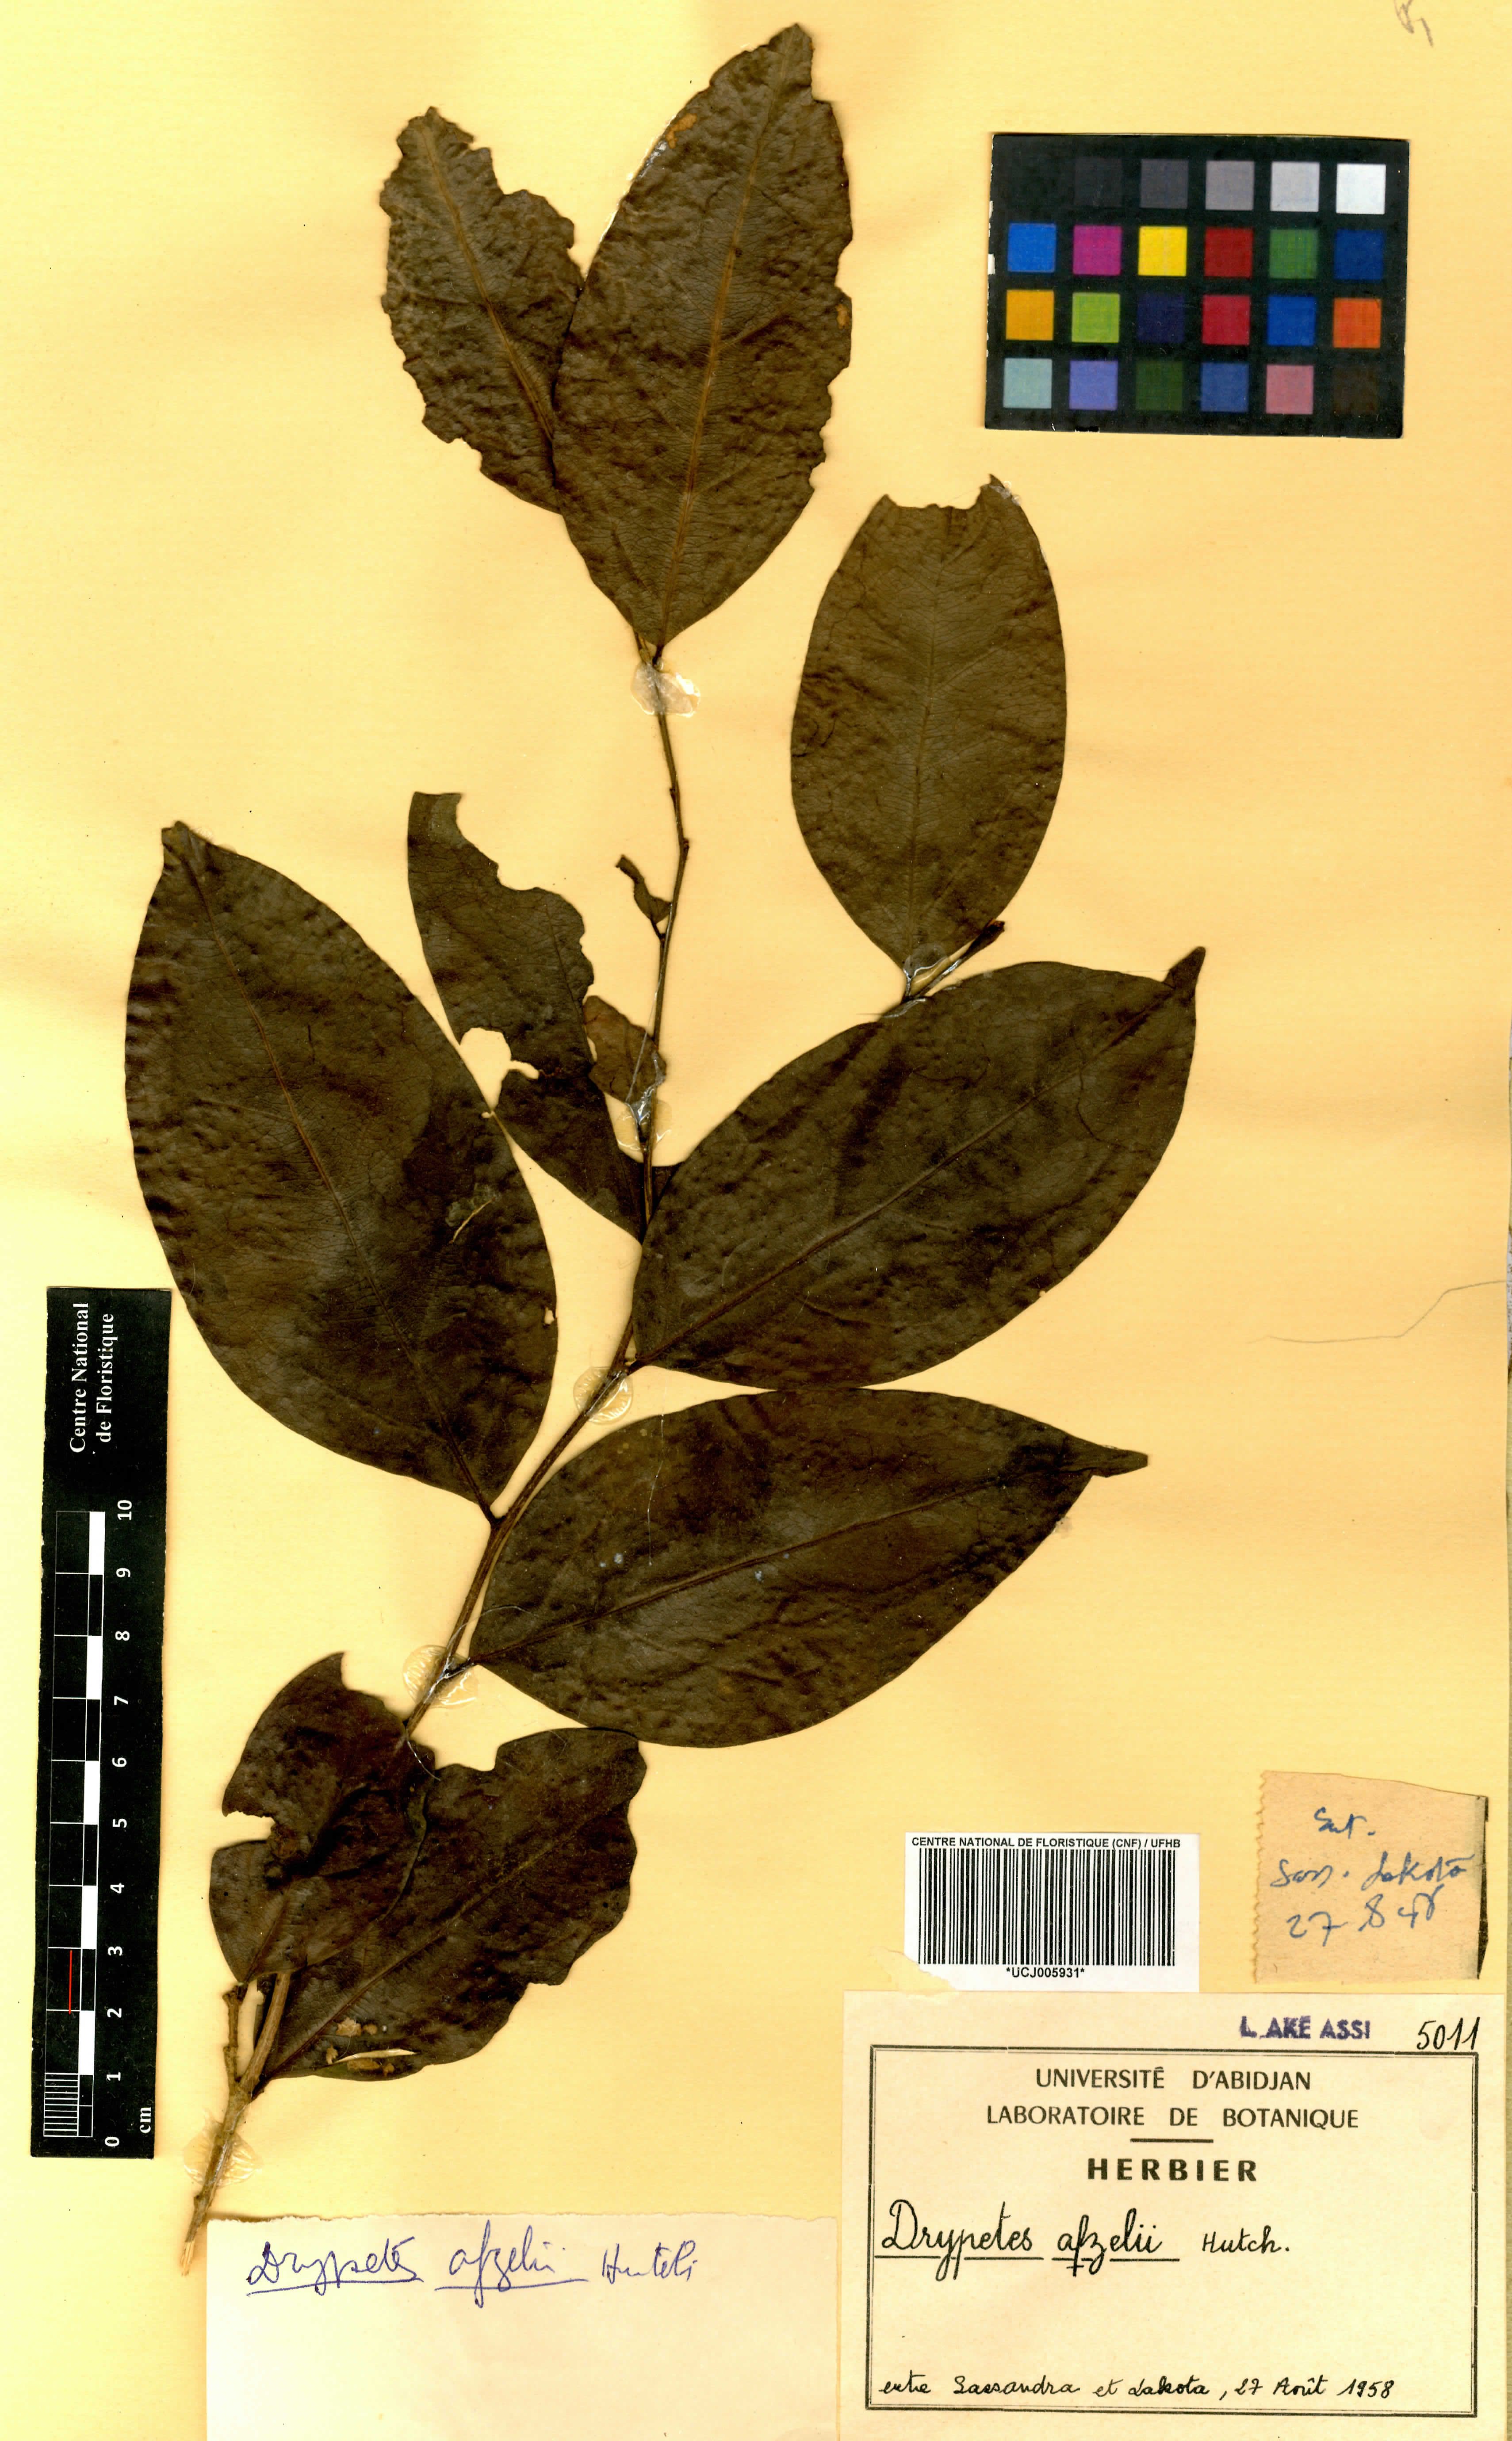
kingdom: Plantae
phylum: Tracheophyta
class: Magnoliopsida
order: Malpighiales
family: Putranjivaceae
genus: Drypetes
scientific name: Drypetes afzelii
